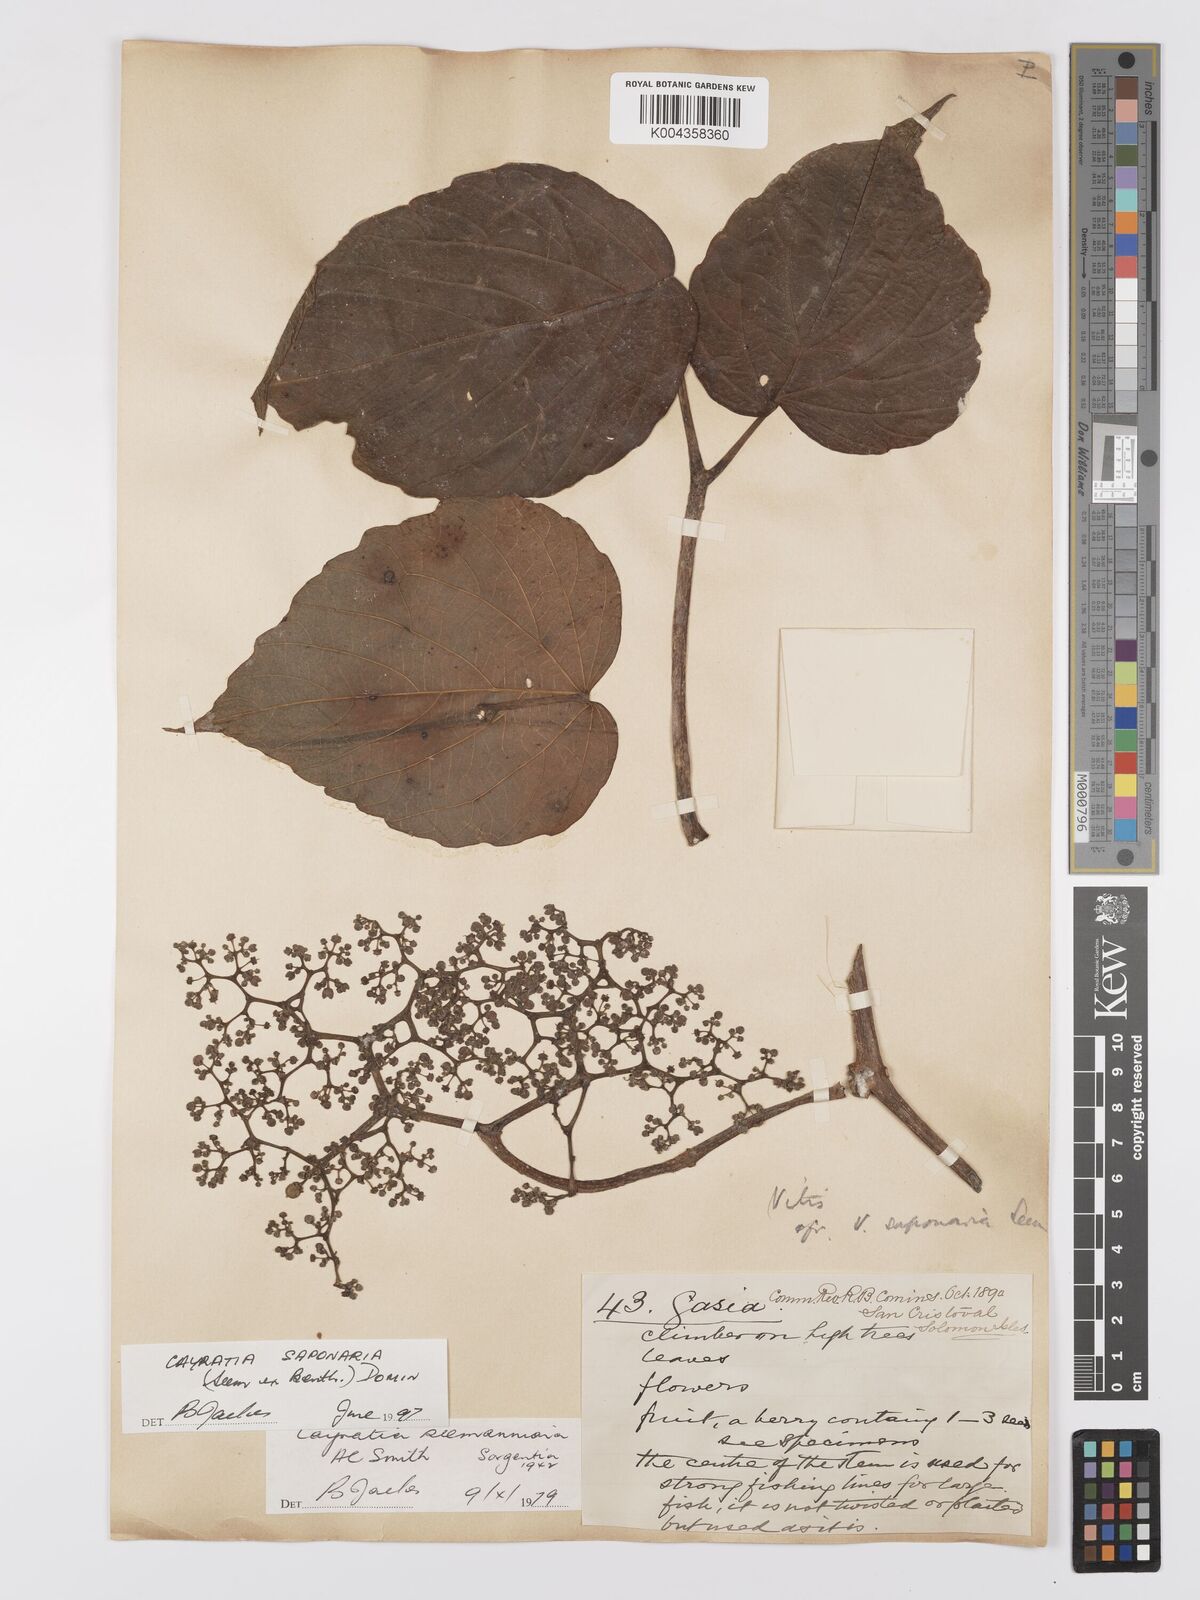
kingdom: Plantae
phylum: Tracheophyta
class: Magnoliopsida
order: Vitales
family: Vitaceae
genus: Cayratia
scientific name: Cayratia saponaria
